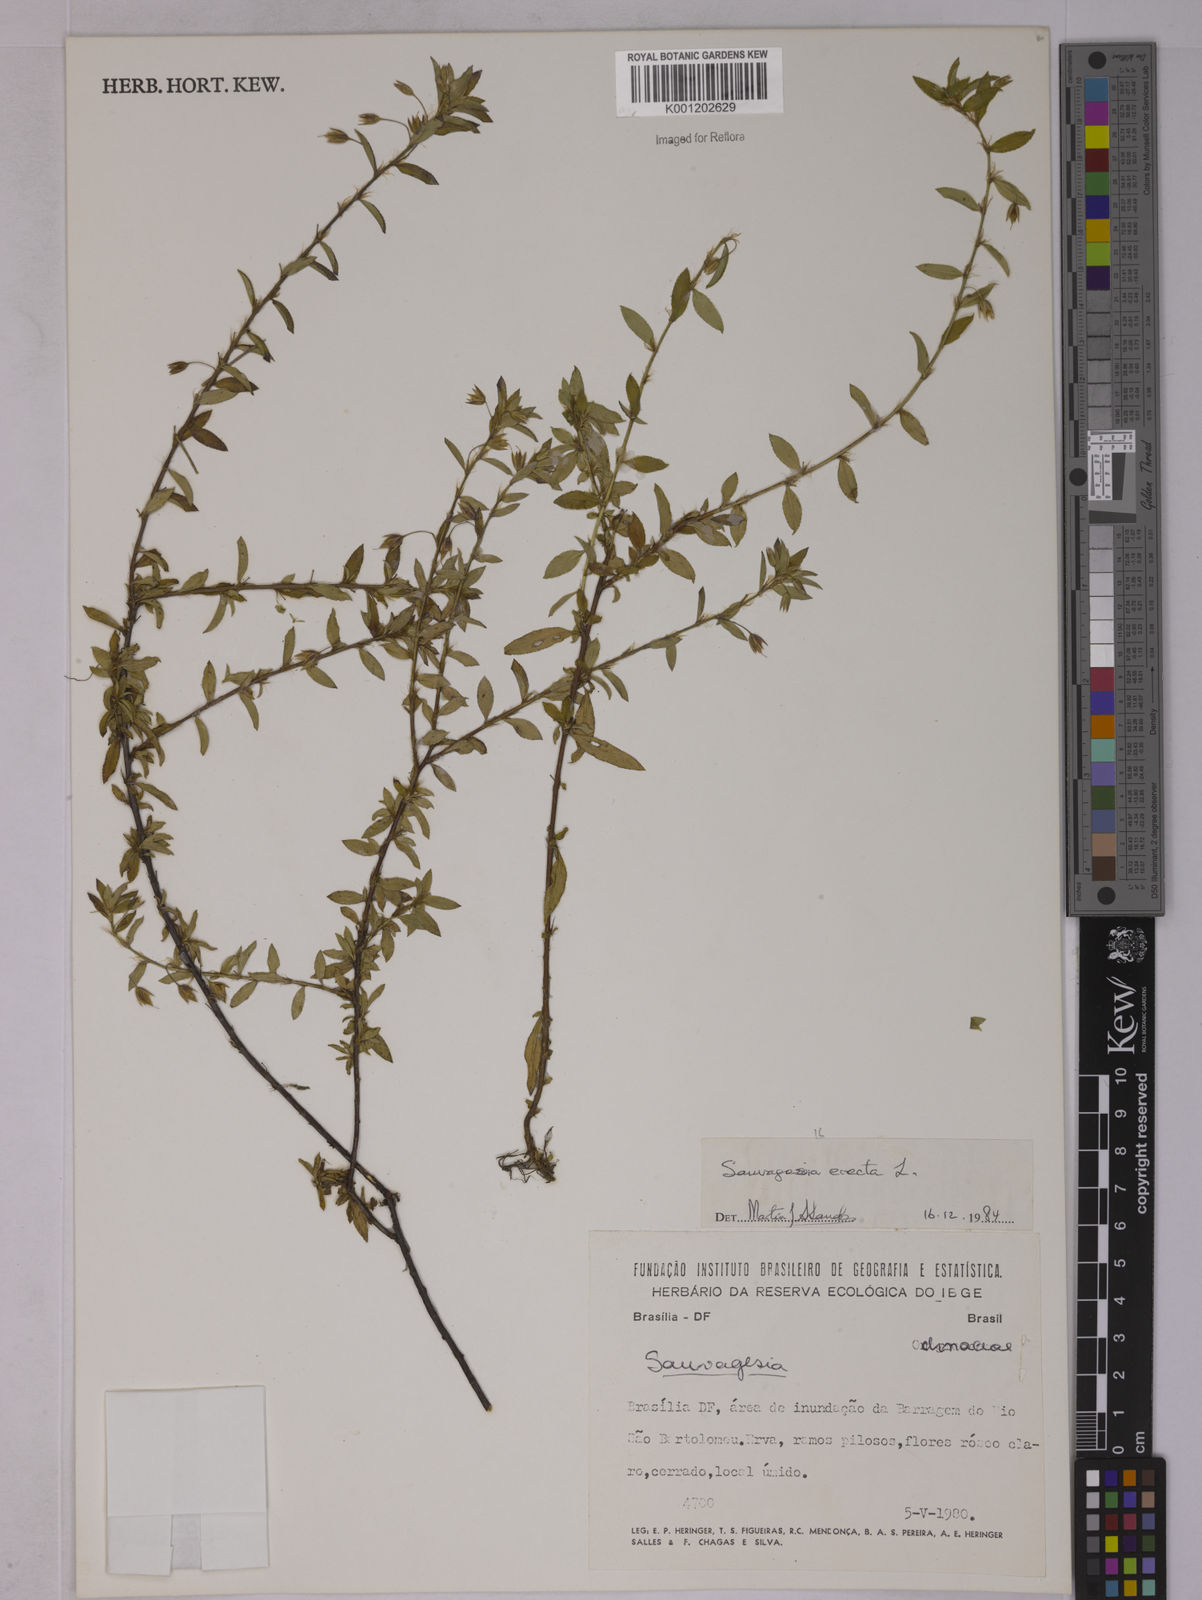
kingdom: Plantae
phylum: Tracheophyta
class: Magnoliopsida
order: Malpighiales
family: Ochnaceae
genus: Sauvagesia
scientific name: Sauvagesia erecta
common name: Creole tea
